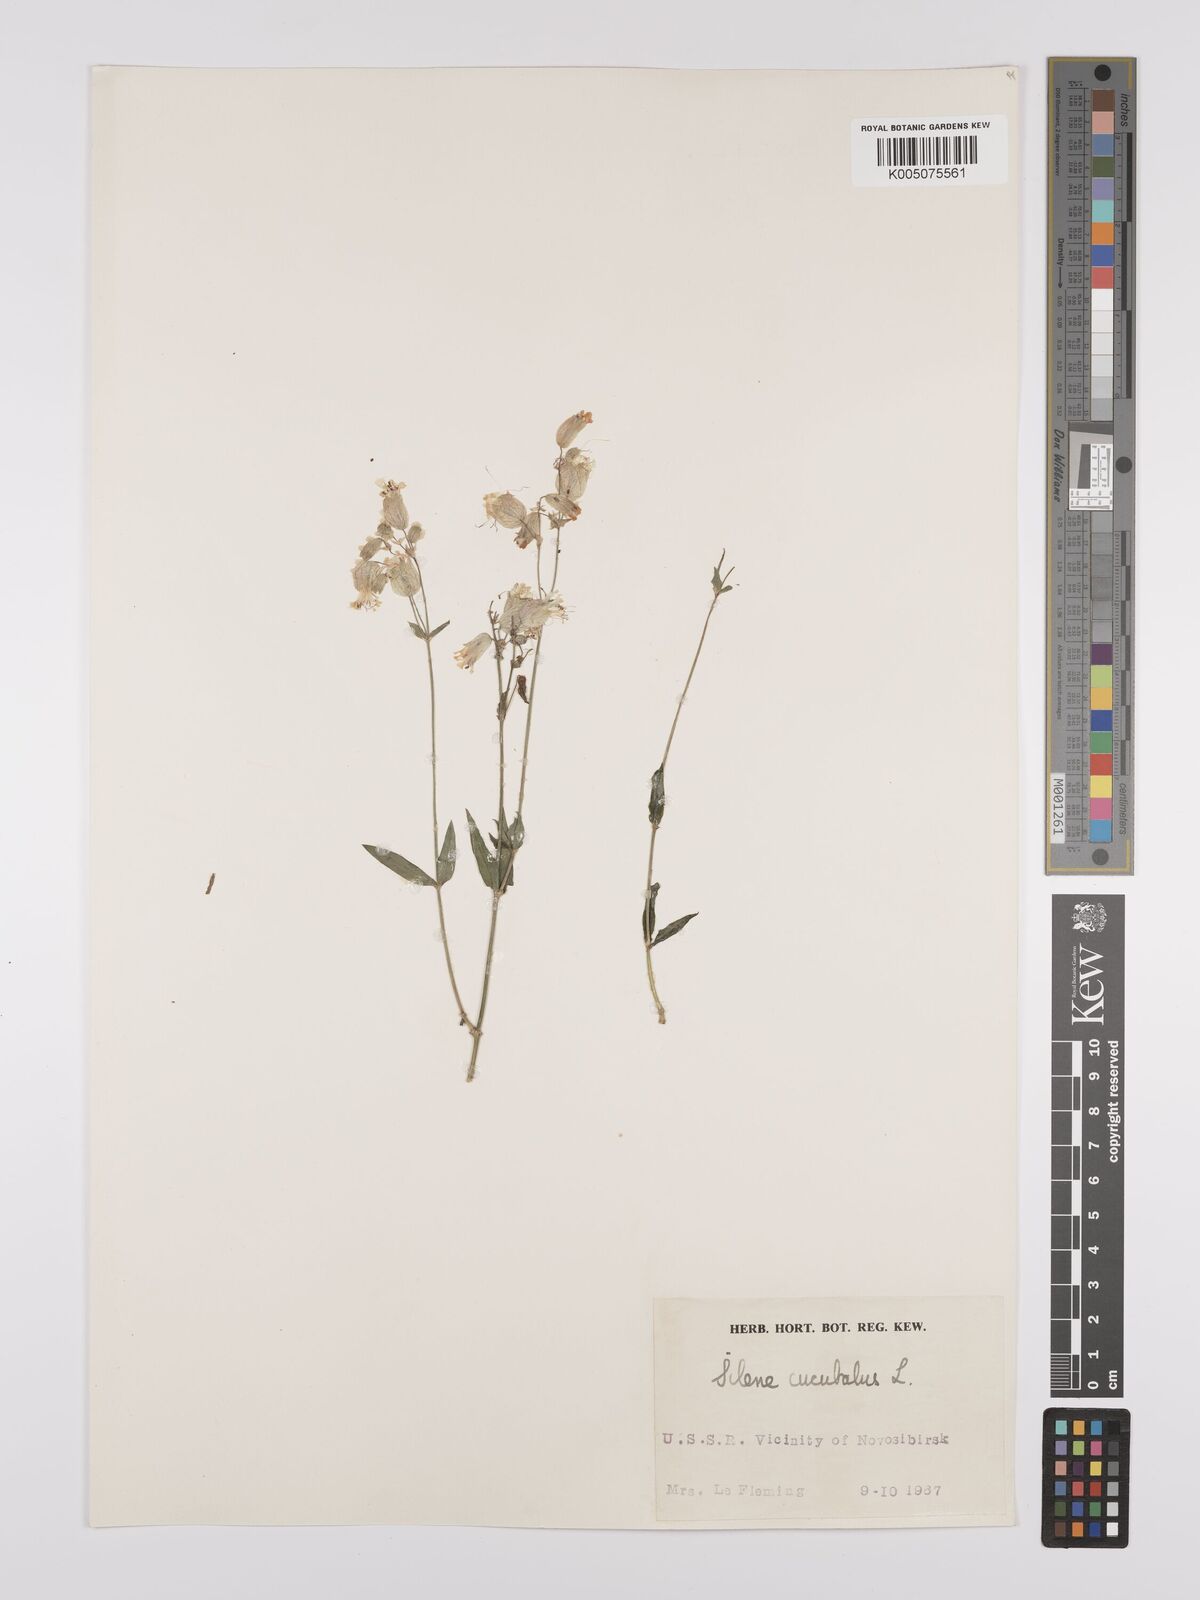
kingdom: Plantae
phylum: Tracheophyta
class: Magnoliopsida
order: Caryophyllales
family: Caryophyllaceae
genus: Silene
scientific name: Silene vulgaris
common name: Bladder campion
